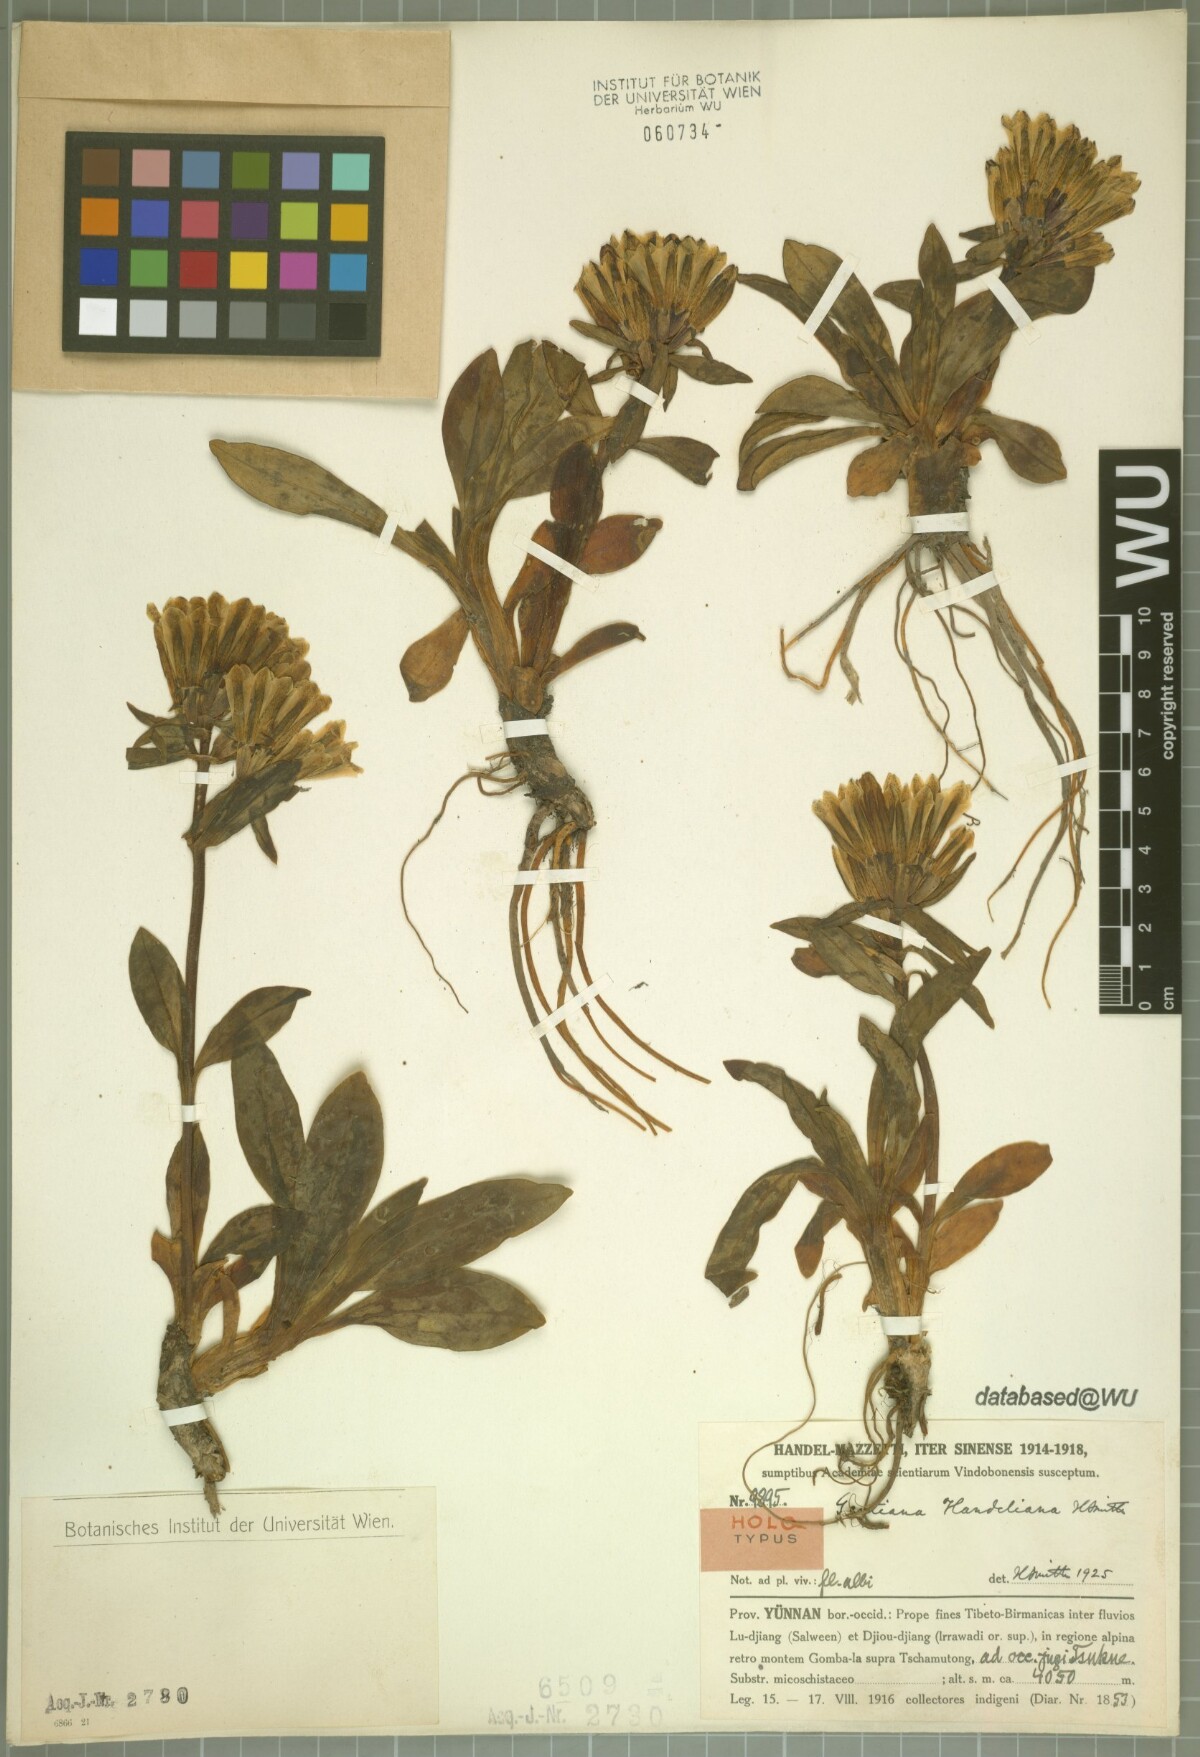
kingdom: Plantae
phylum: Tracheophyta
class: Magnoliopsida
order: Gentianales
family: Gentianaceae
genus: Gentiana
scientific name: Gentiana handeliana
